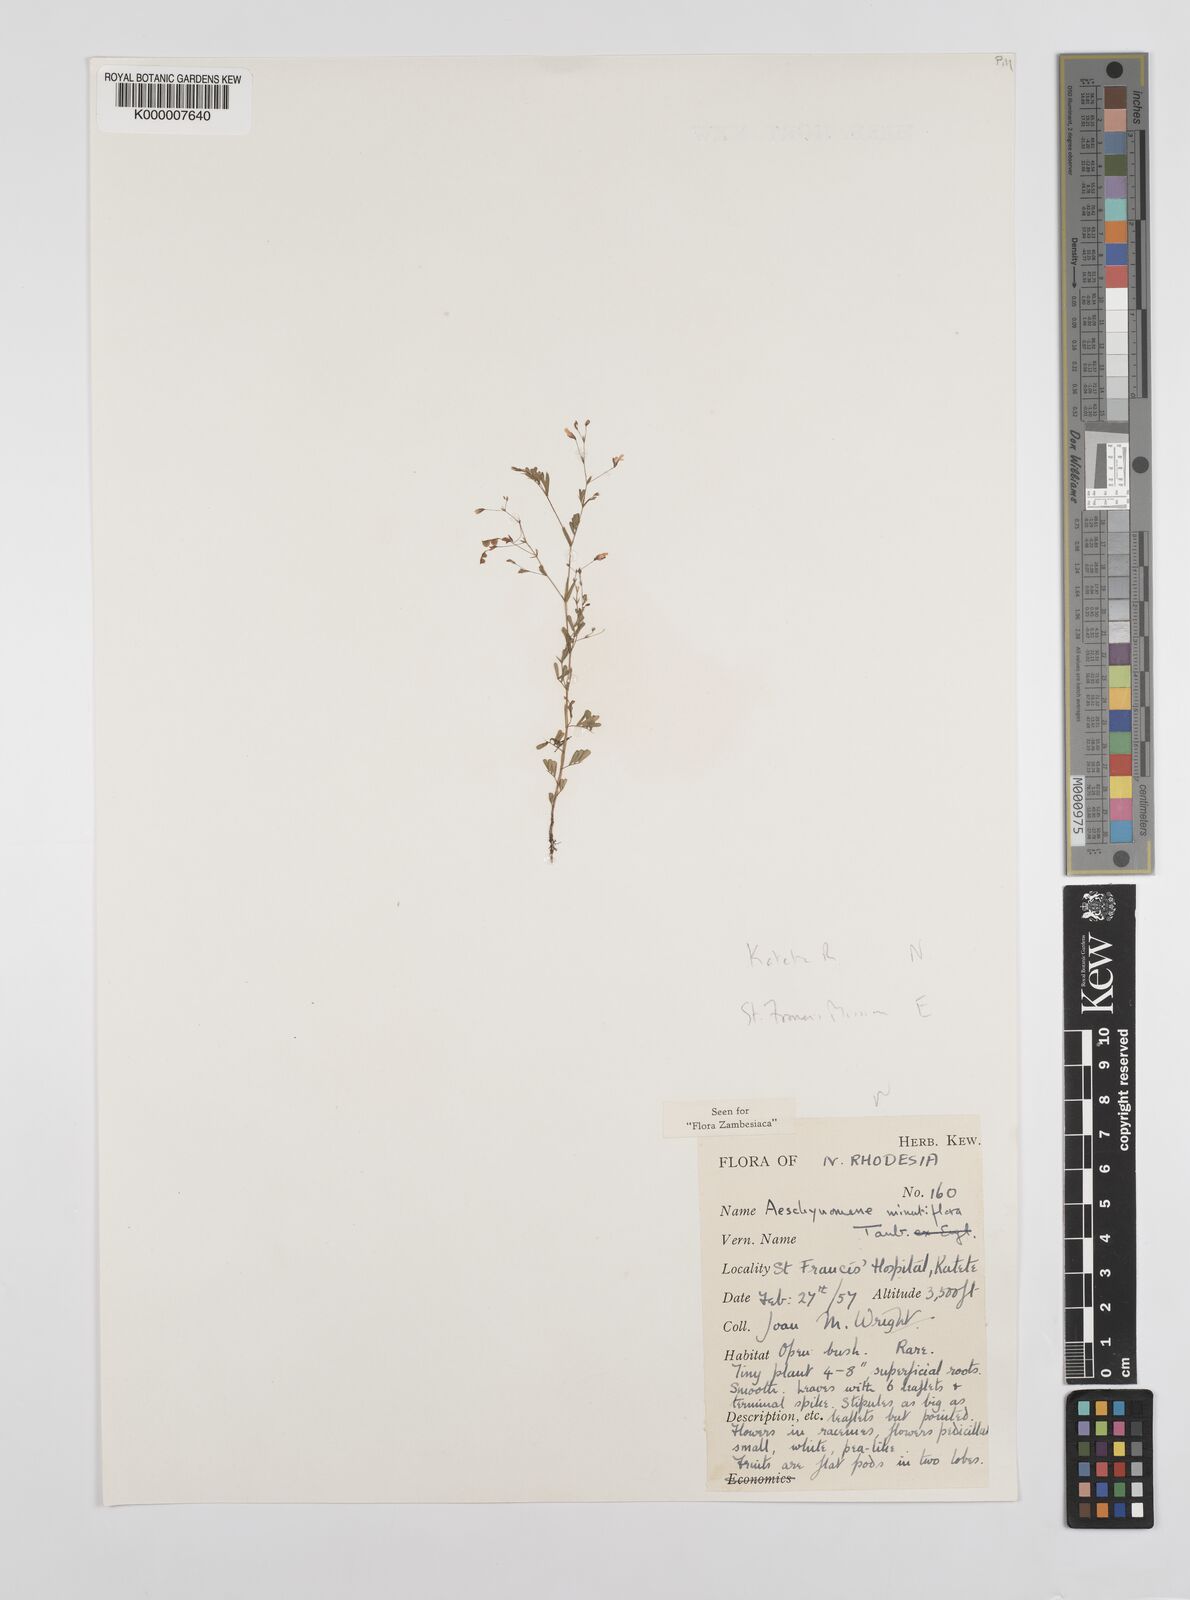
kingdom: Plantae
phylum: Tracheophyta
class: Magnoliopsida
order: Fabales
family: Fabaceae
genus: Aeschynomene
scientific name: Aeschynomene minutiflora
